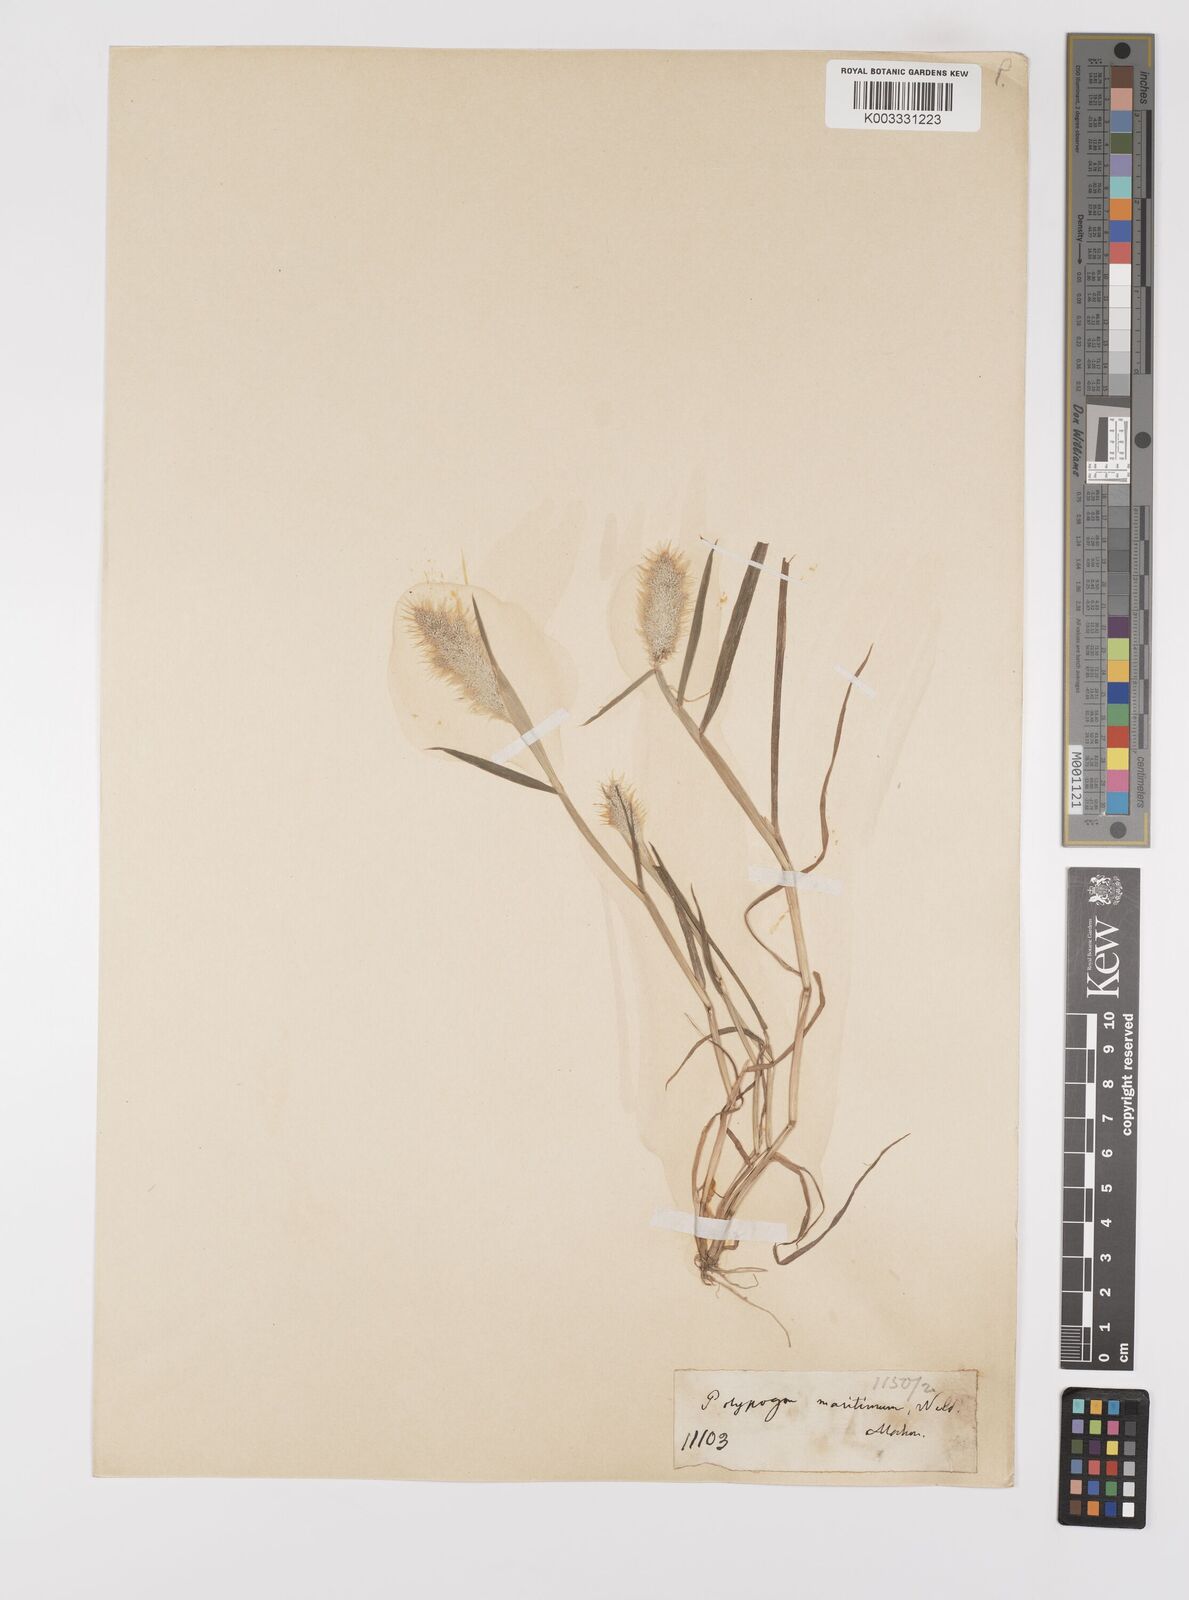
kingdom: Plantae
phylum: Tracheophyta
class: Liliopsida
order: Poales
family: Poaceae
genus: Polypogon
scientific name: Polypogon maritimus
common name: Mediterranean rabbitsfoot grass
